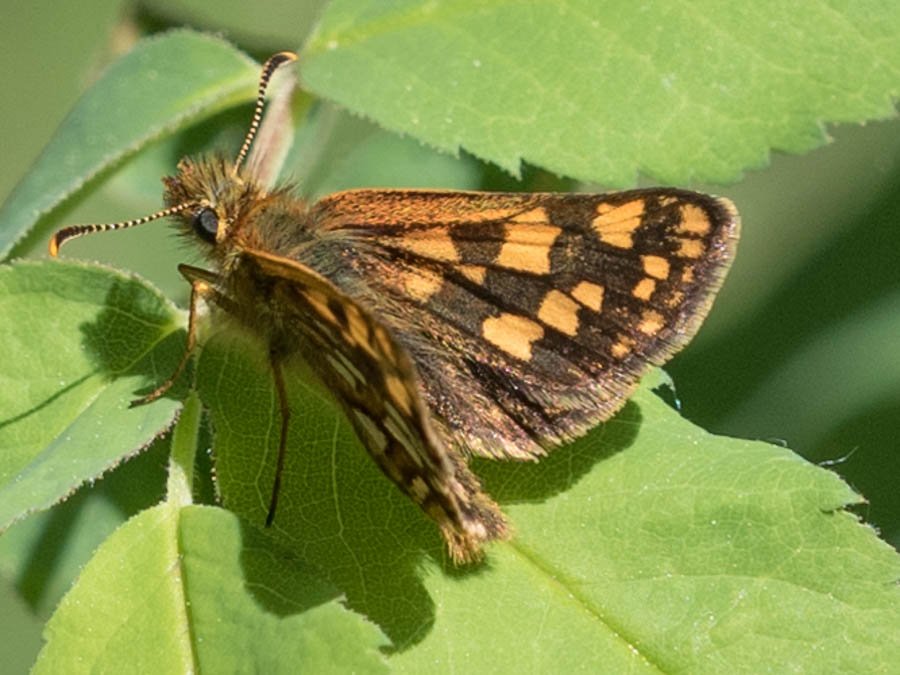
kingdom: Animalia
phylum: Arthropoda
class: Insecta
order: Lepidoptera
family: Hesperiidae
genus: Carterocephalus
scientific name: Carterocephalus palaemon
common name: Chequered Skipper
